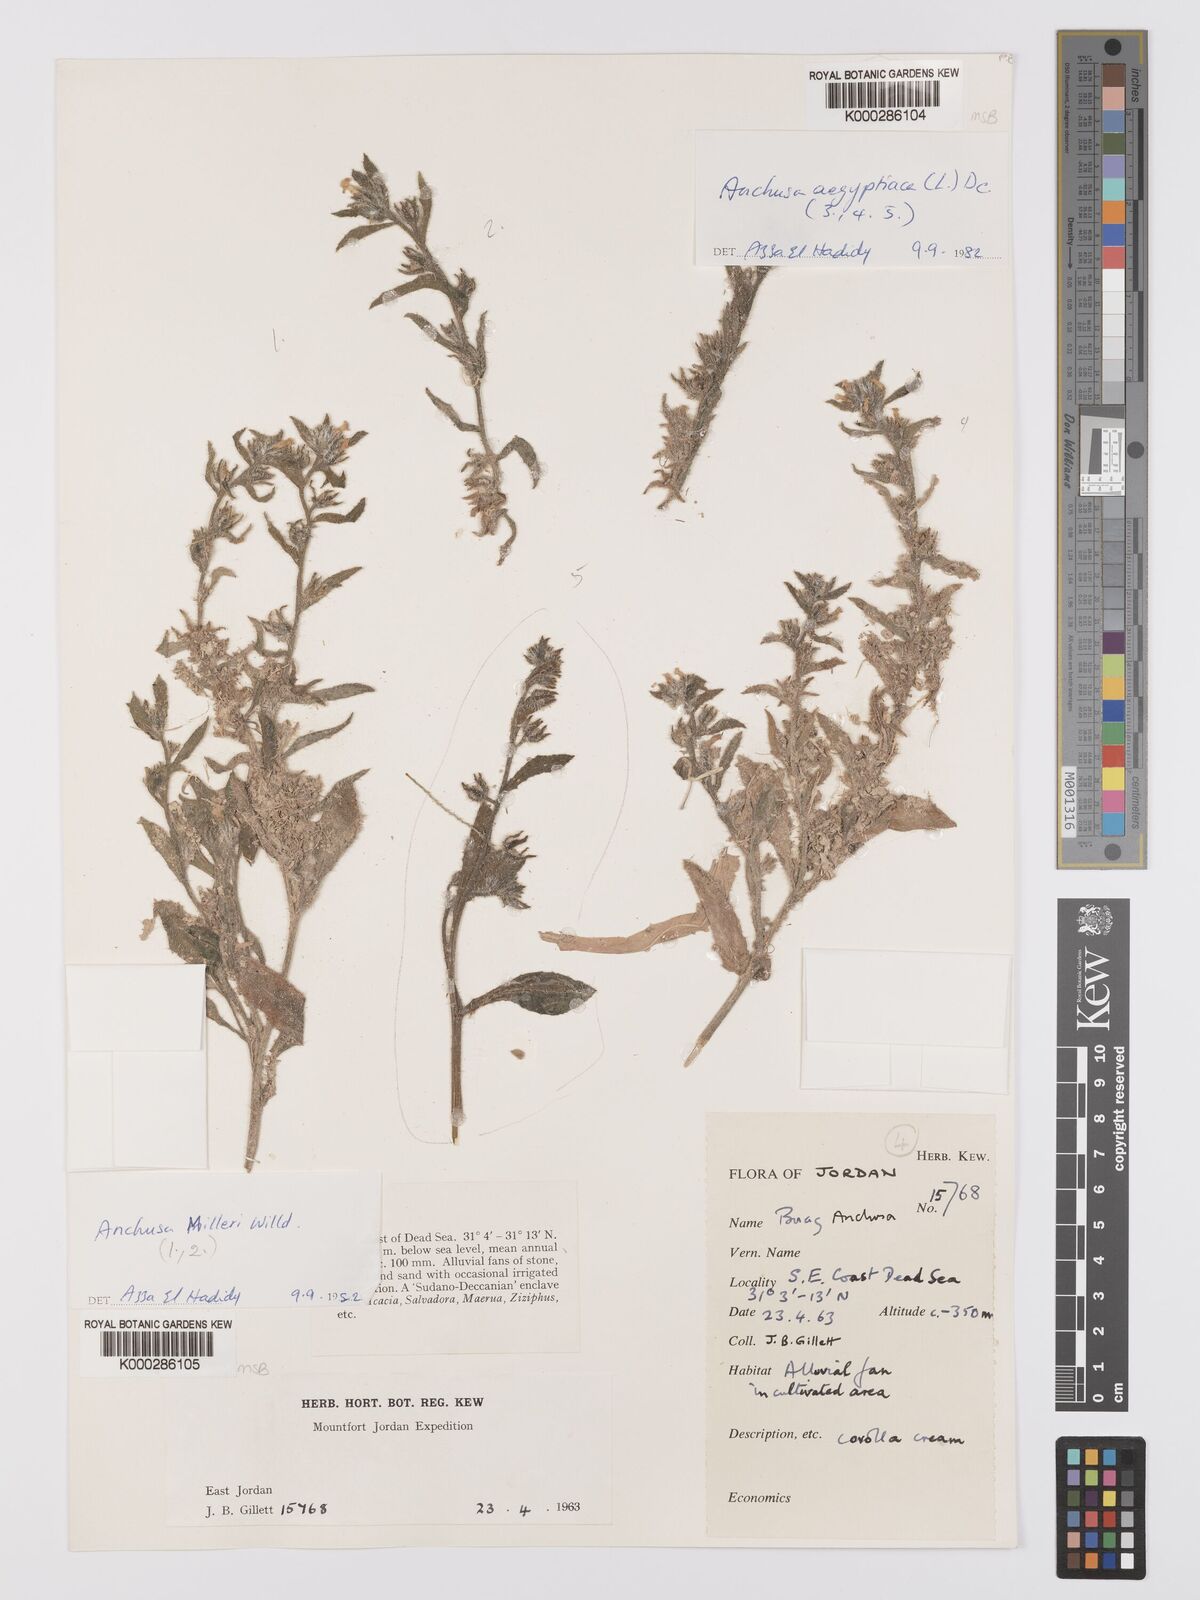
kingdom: Plantae
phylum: Tracheophyta
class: Magnoliopsida
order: Boraginales
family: Boraginaceae
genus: Lycopsis
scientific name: Lycopsis aegyptiaca
